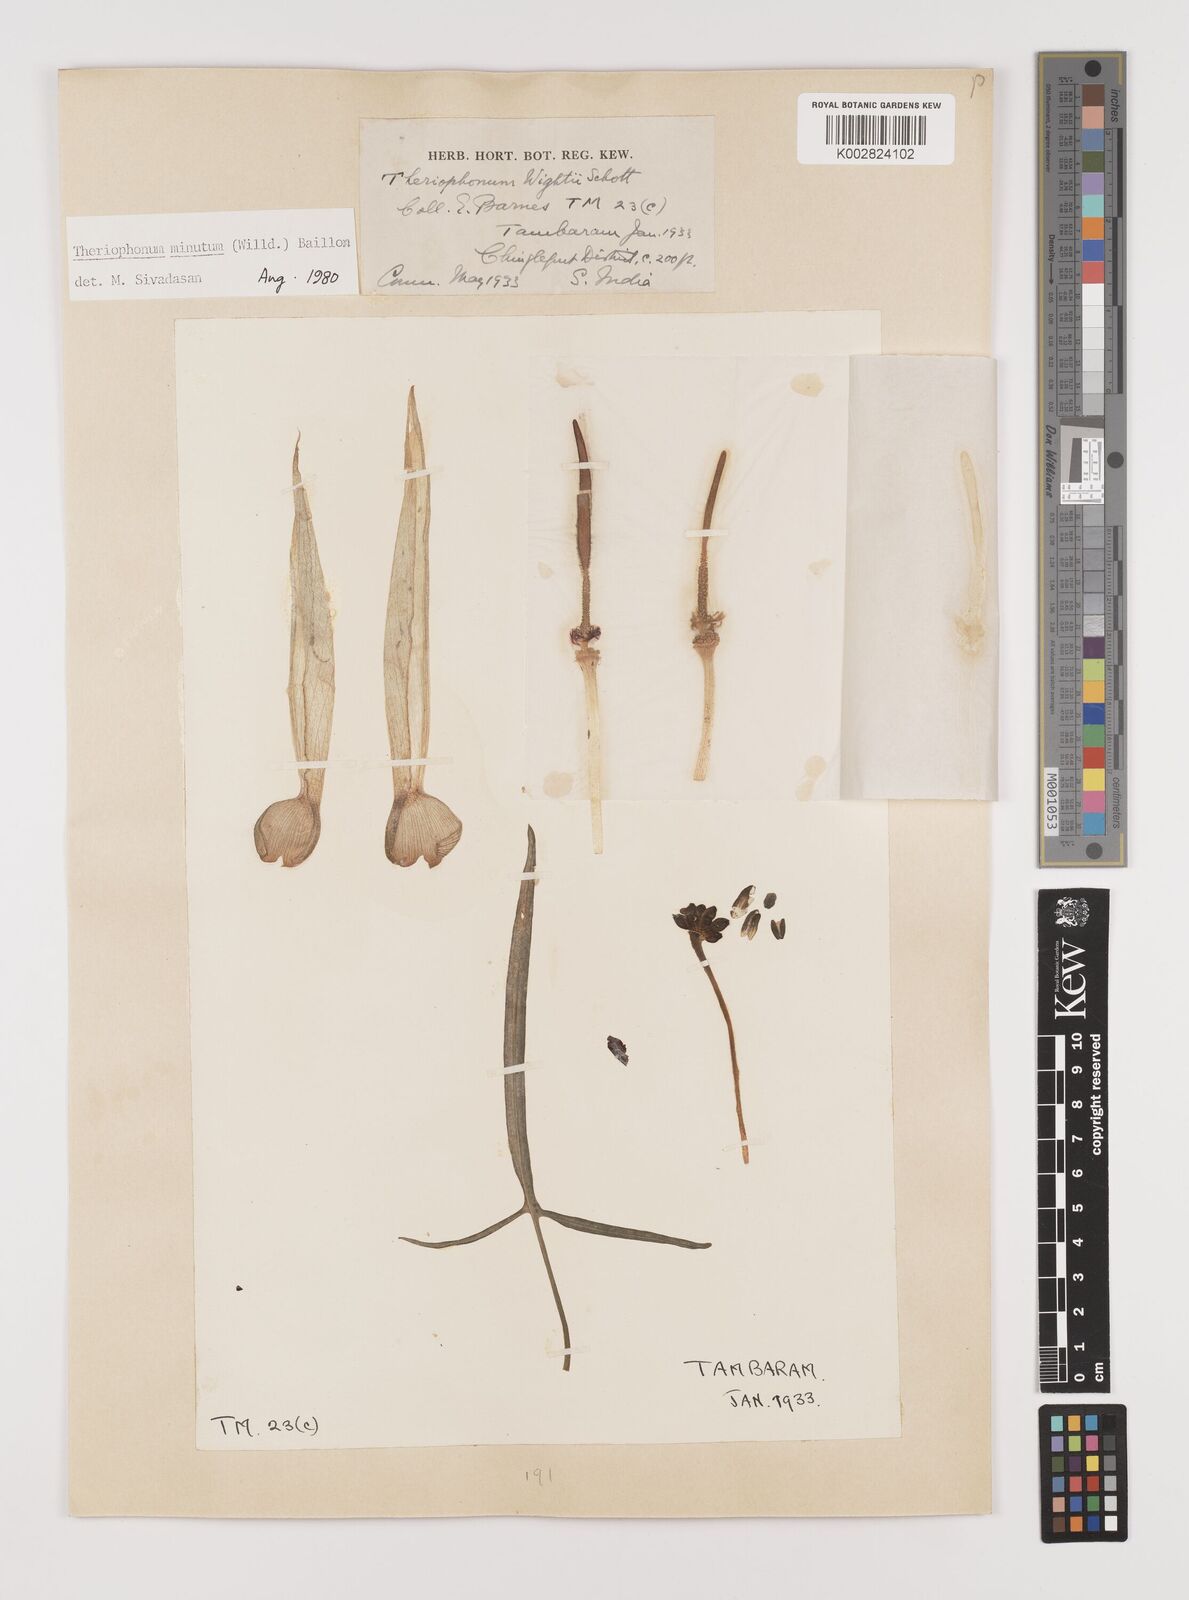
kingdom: Plantae
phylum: Tracheophyta
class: Liliopsida
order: Alismatales
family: Araceae
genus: Theriophonum
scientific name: Theriophonum minutum
